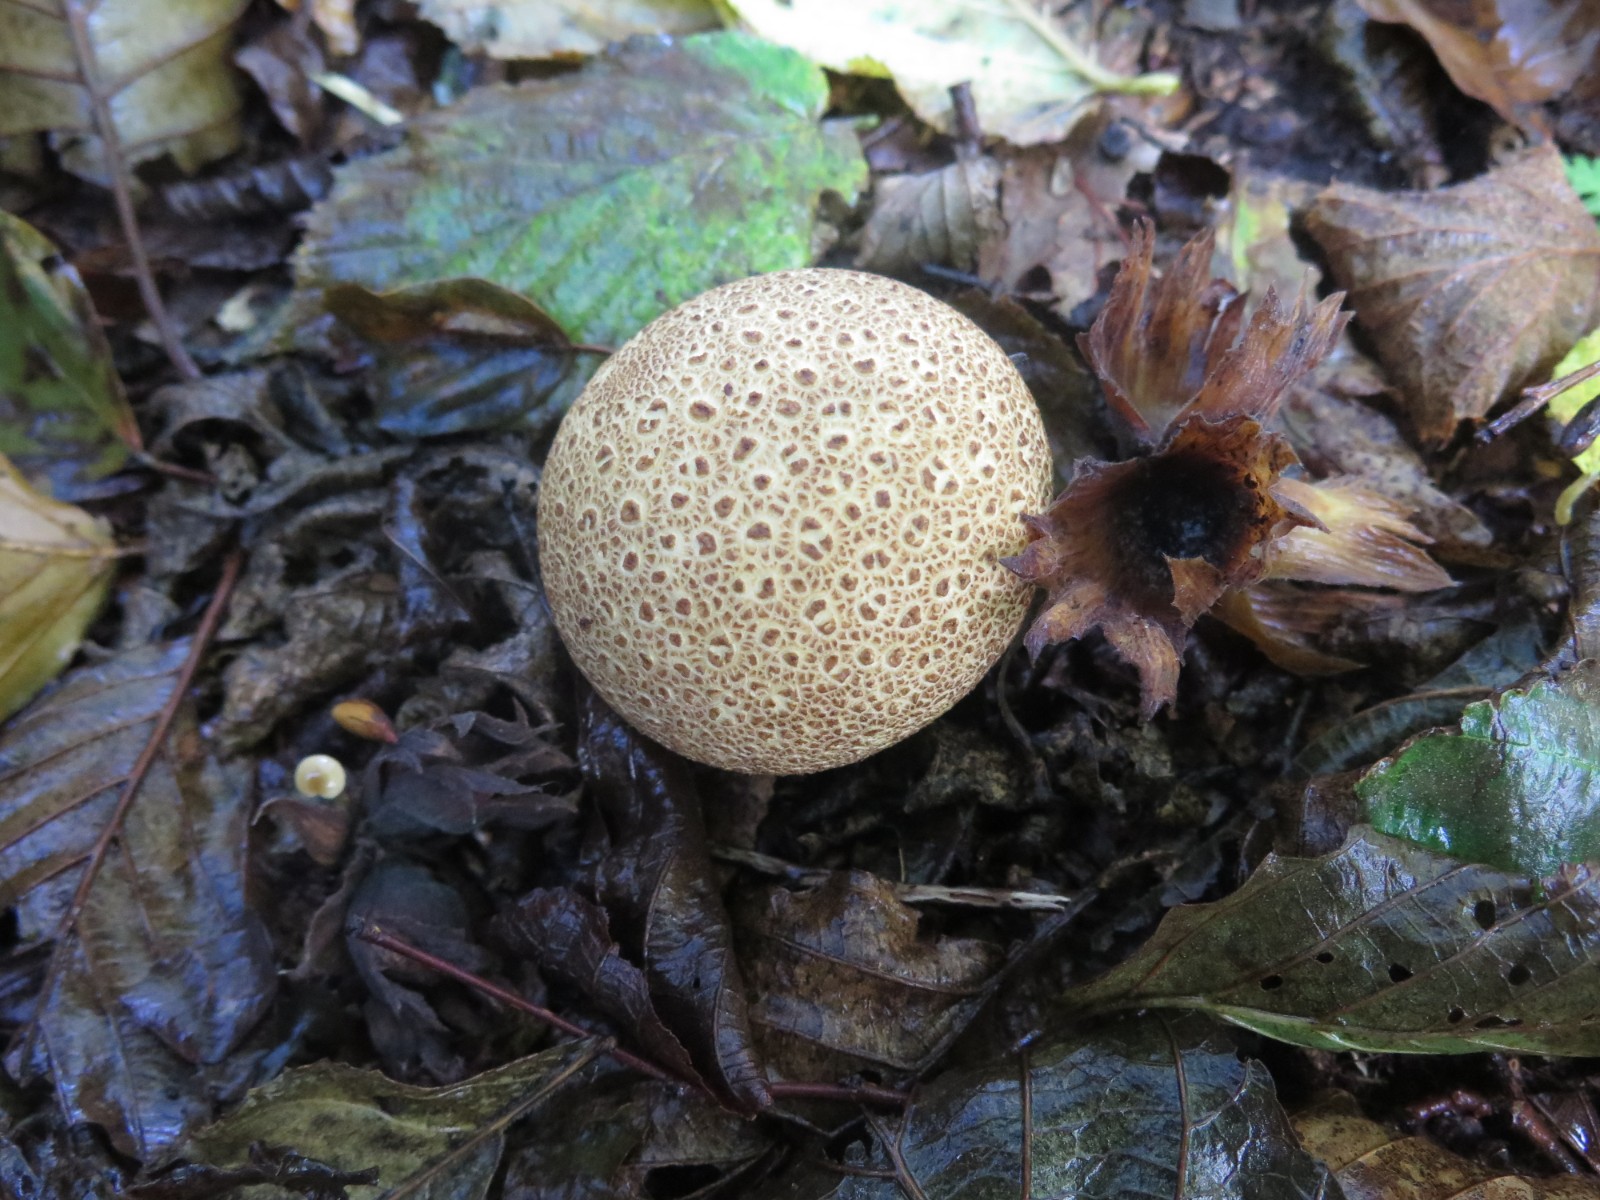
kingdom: Fungi
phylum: Basidiomycota
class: Agaricomycetes
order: Boletales
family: Sclerodermataceae
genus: Scleroderma
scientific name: Scleroderma areolatum
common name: plettet bruskbold
